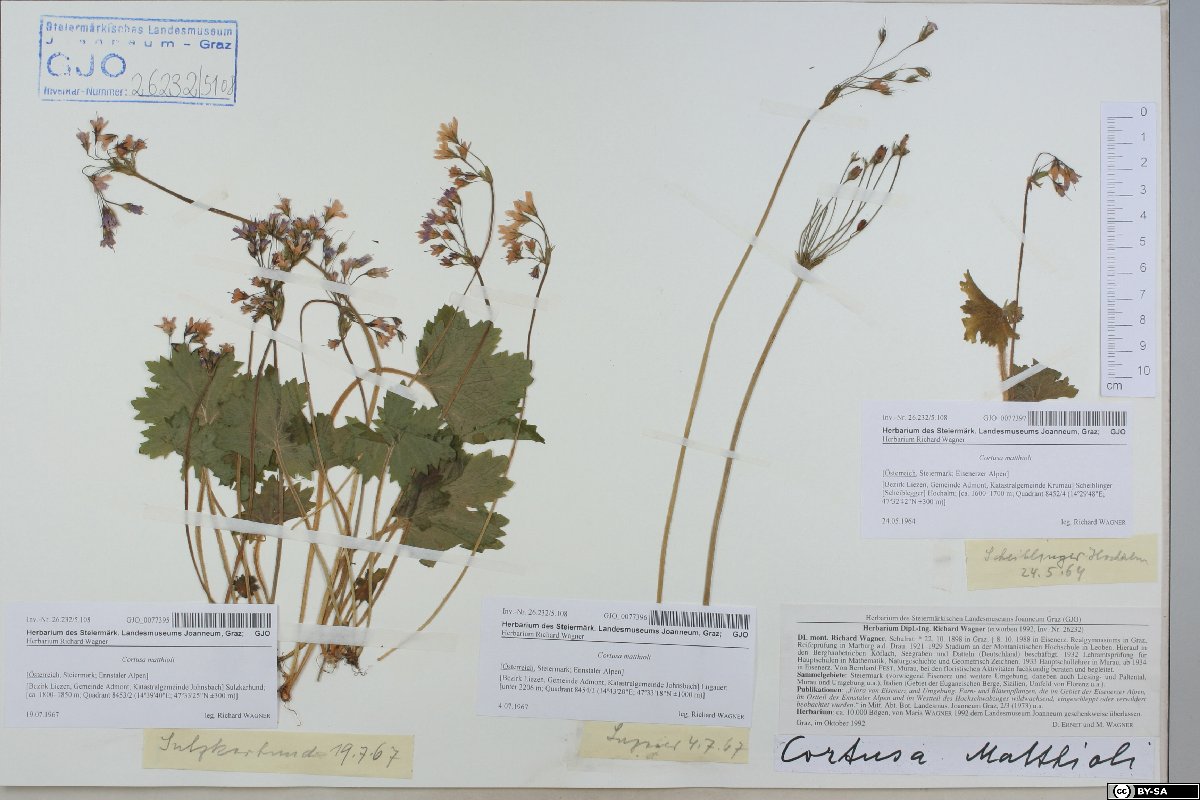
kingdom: Plantae
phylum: Tracheophyta
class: Magnoliopsida
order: Ericales
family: Primulaceae
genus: Primula
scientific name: Primula matthioli
